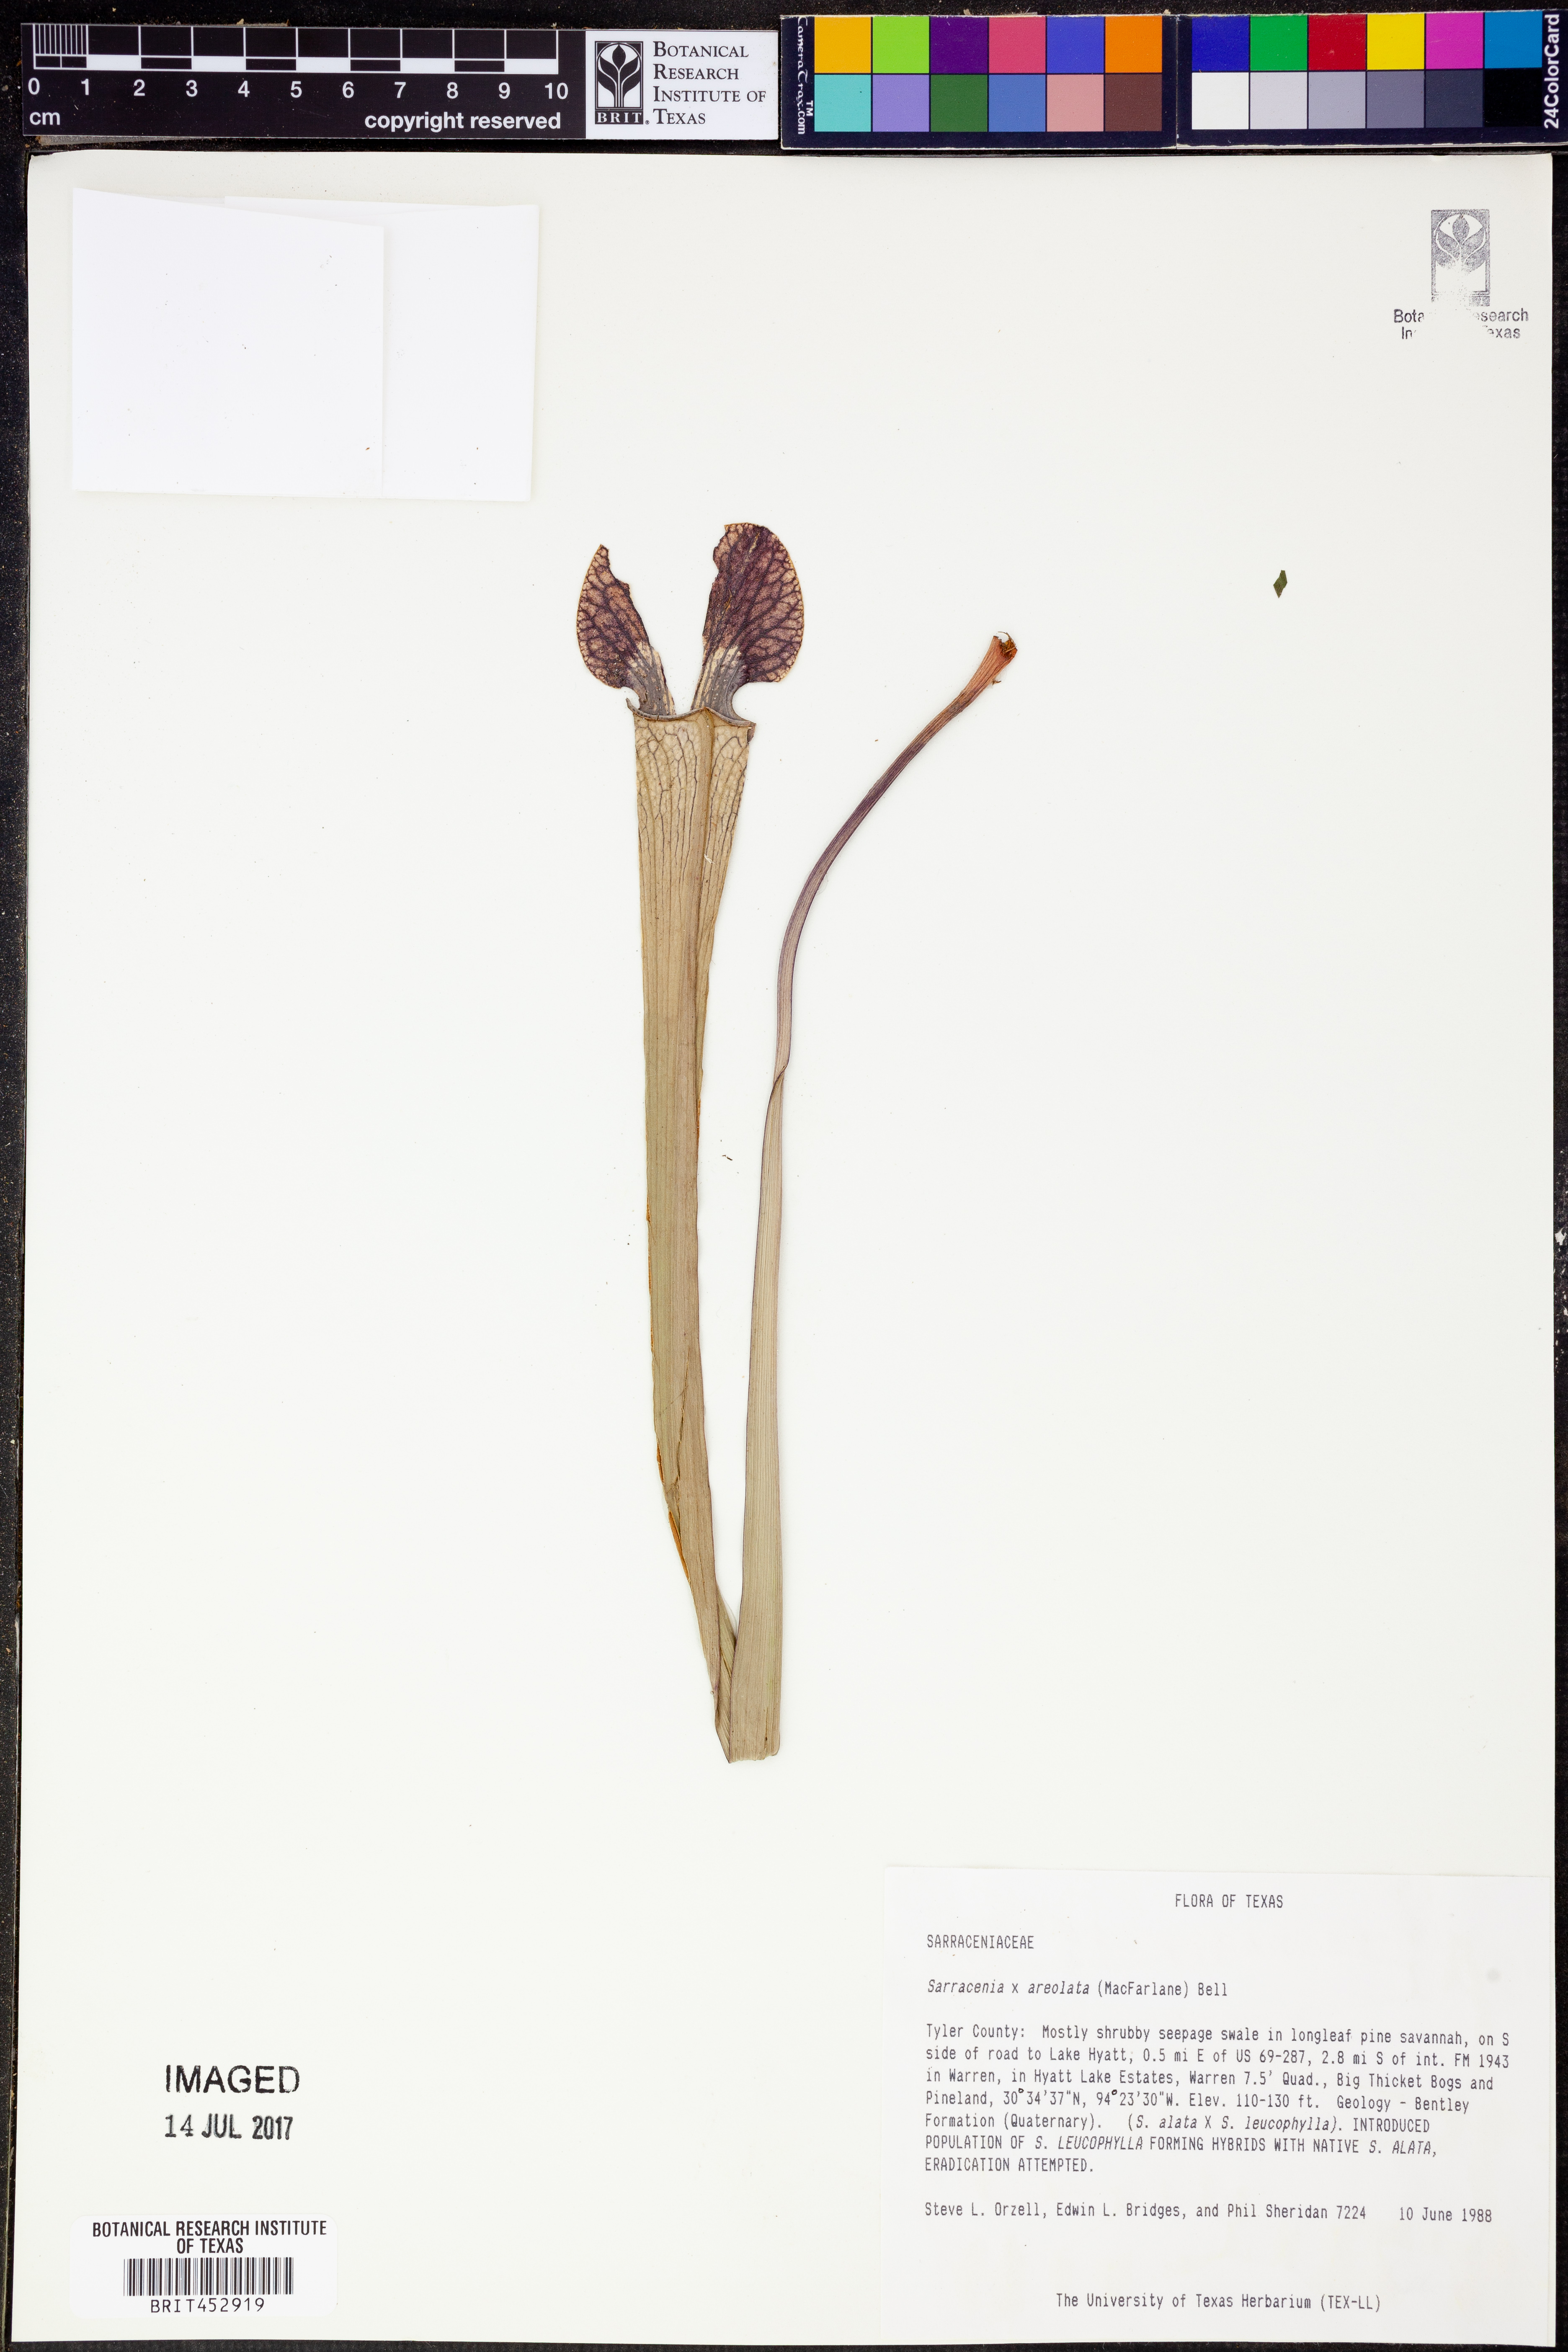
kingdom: Plantae
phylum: Tracheophyta
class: Magnoliopsida
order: Ericales
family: Sarraceniaceae
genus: Sarracenia
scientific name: Sarracenia
